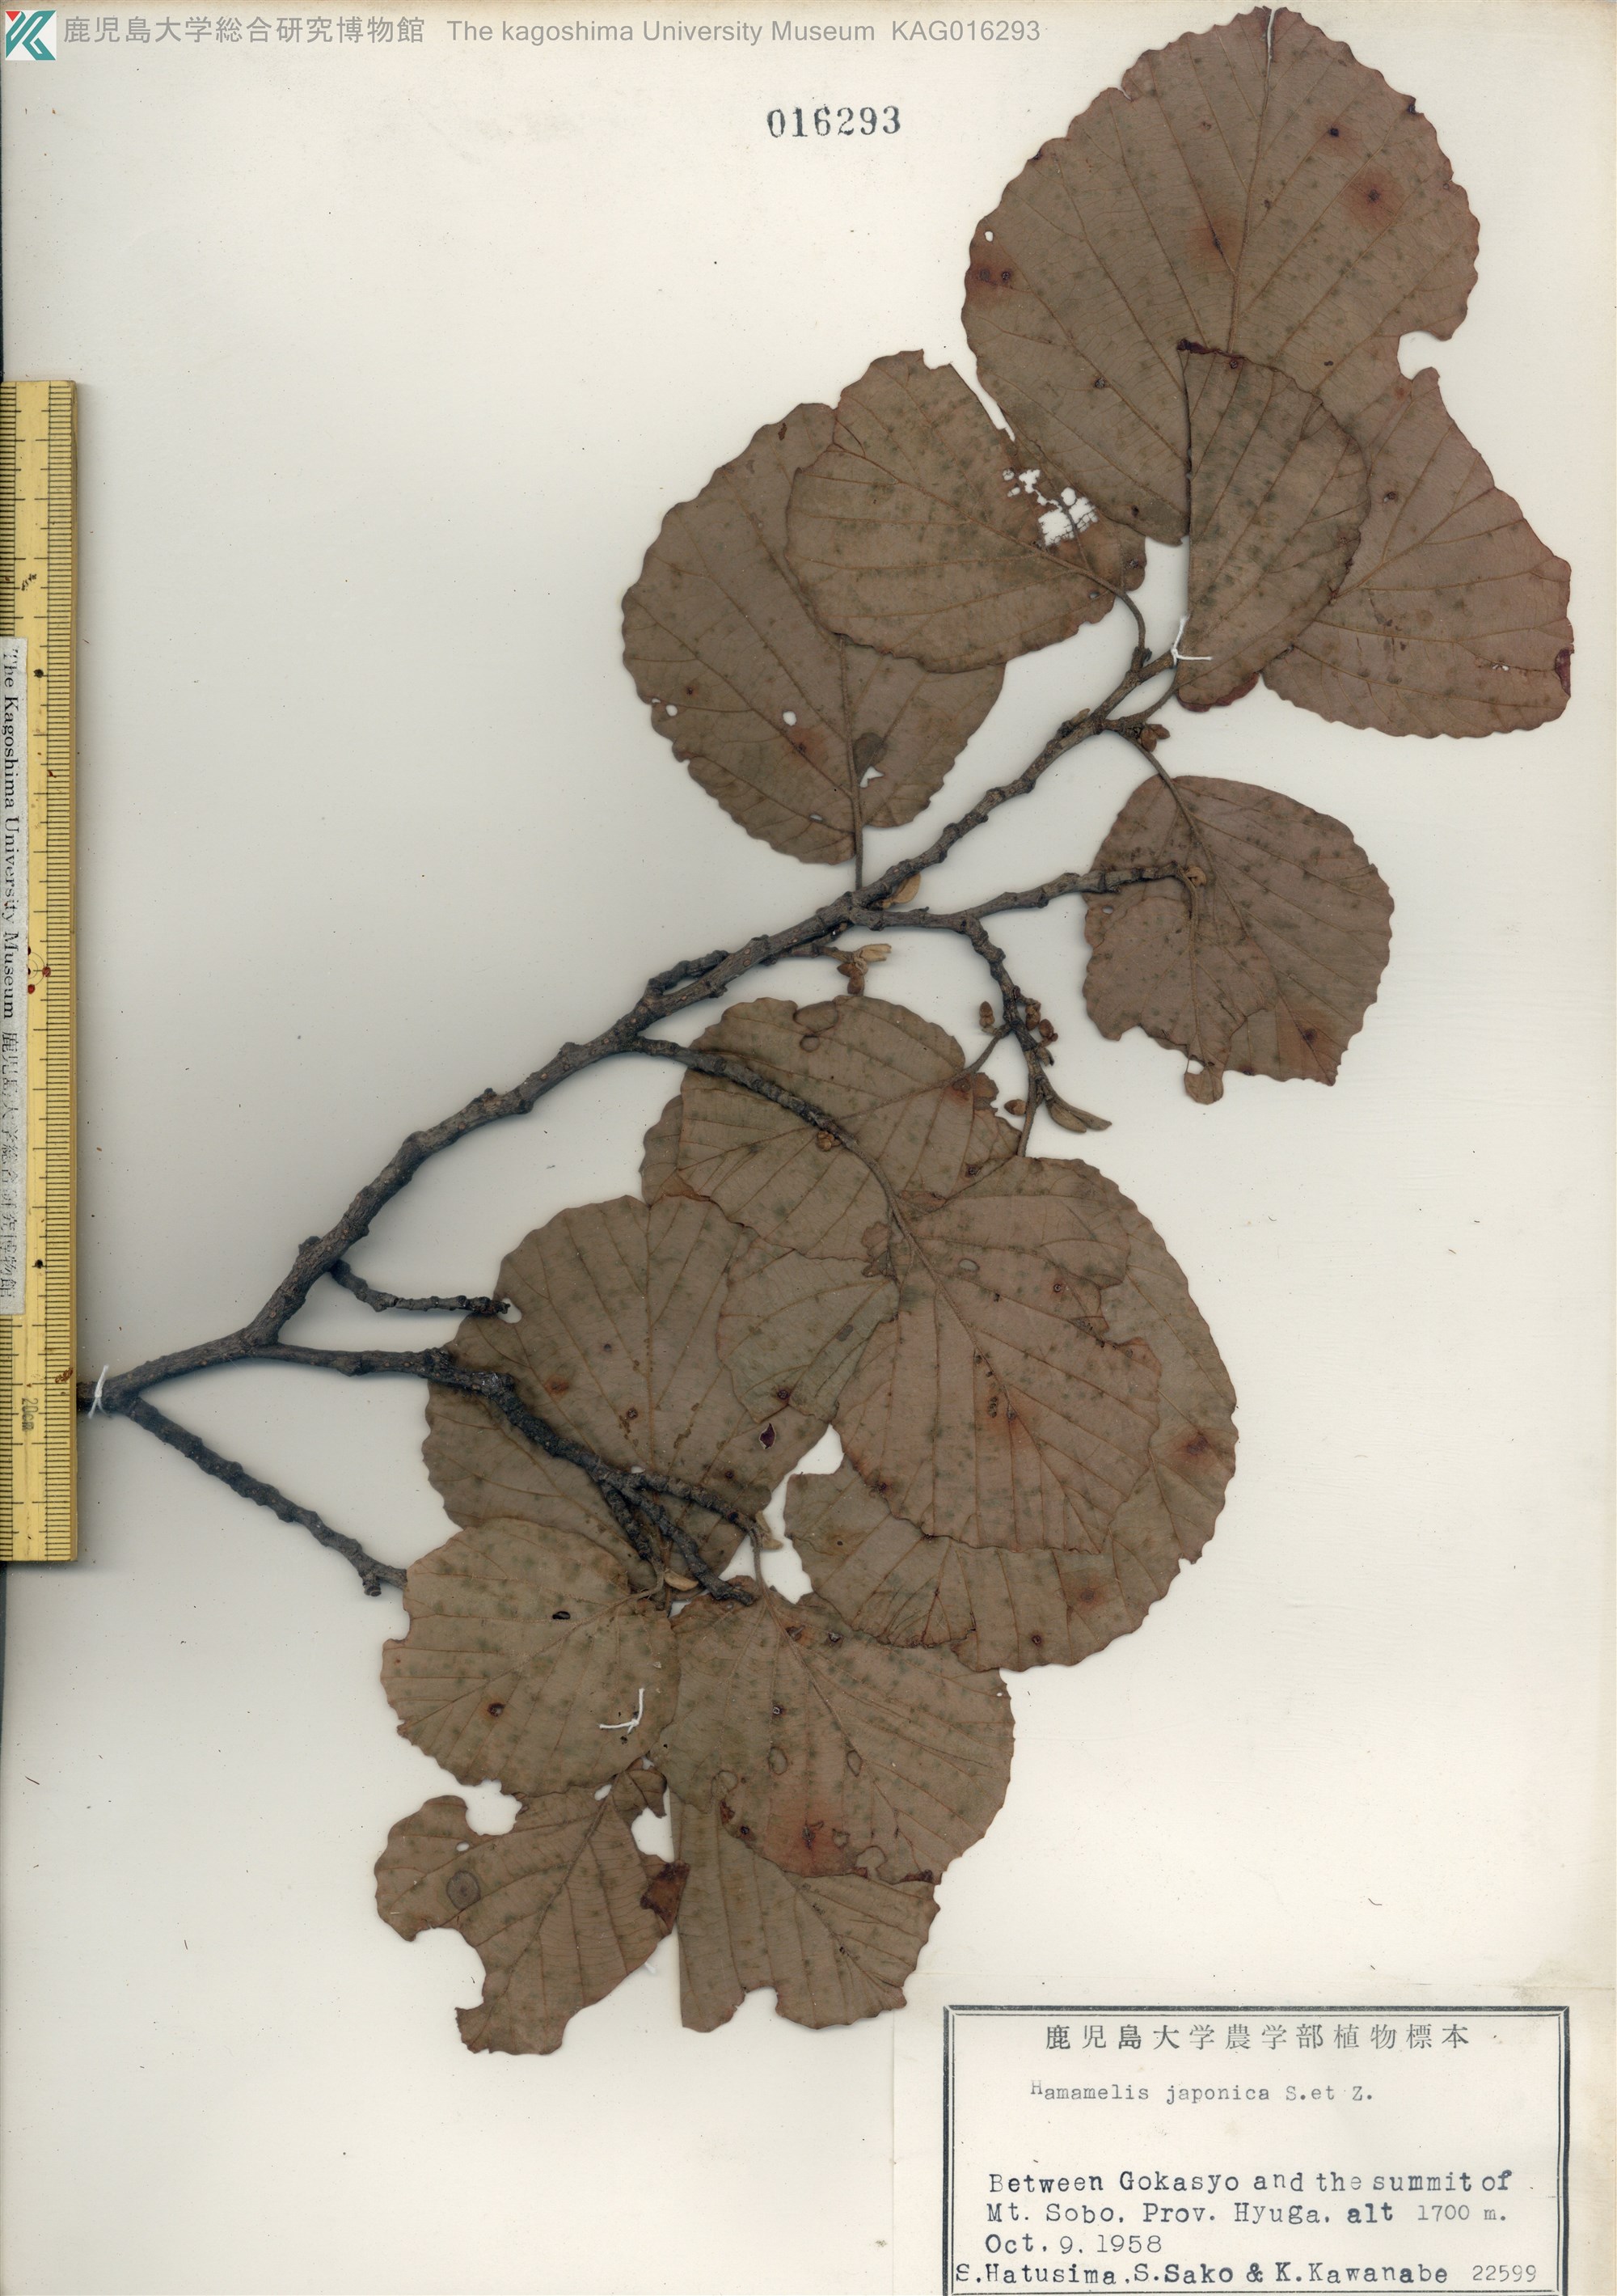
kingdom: Plantae
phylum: Tracheophyta
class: Magnoliopsida
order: Saxifragales
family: Hamamelidaceae
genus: Hamamelis
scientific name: Hamamelis japonica
